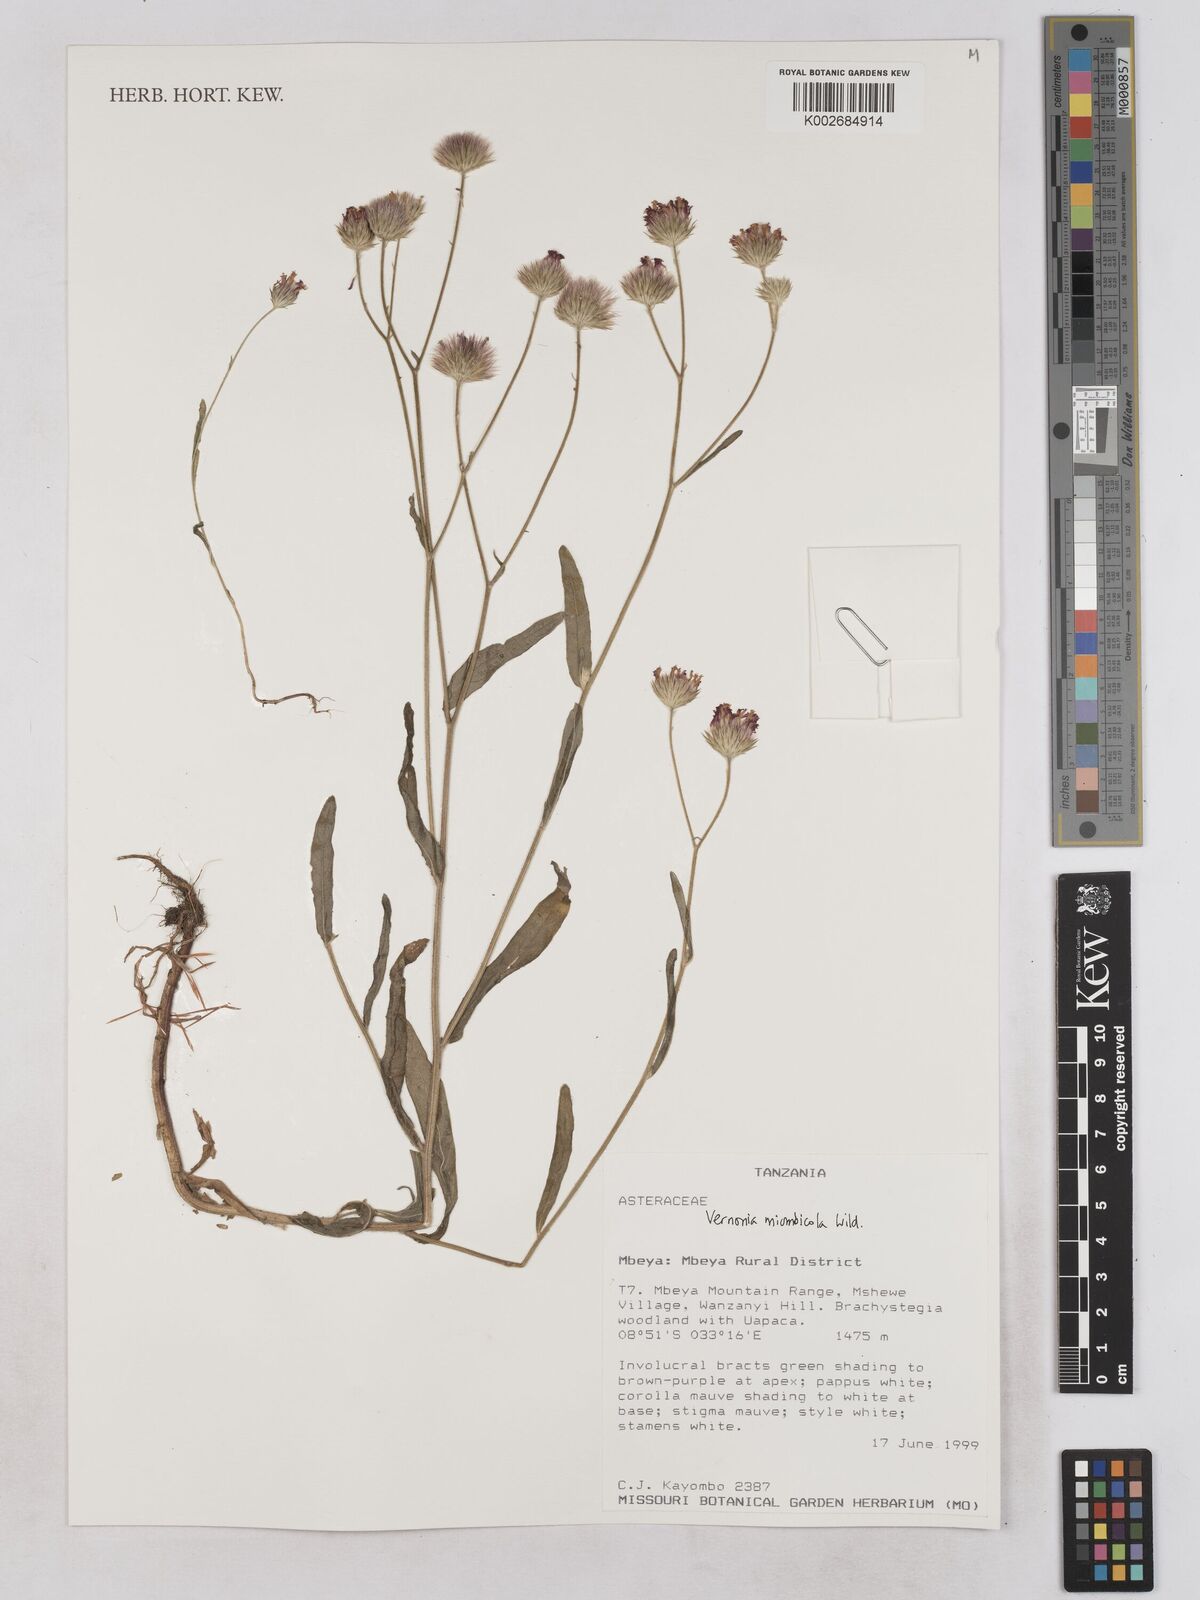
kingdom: Plantae
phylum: Tracheophyta
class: Magnoliopsida
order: Asterales
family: Asteraceae
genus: Vernonia
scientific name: Vernonia miombicola
